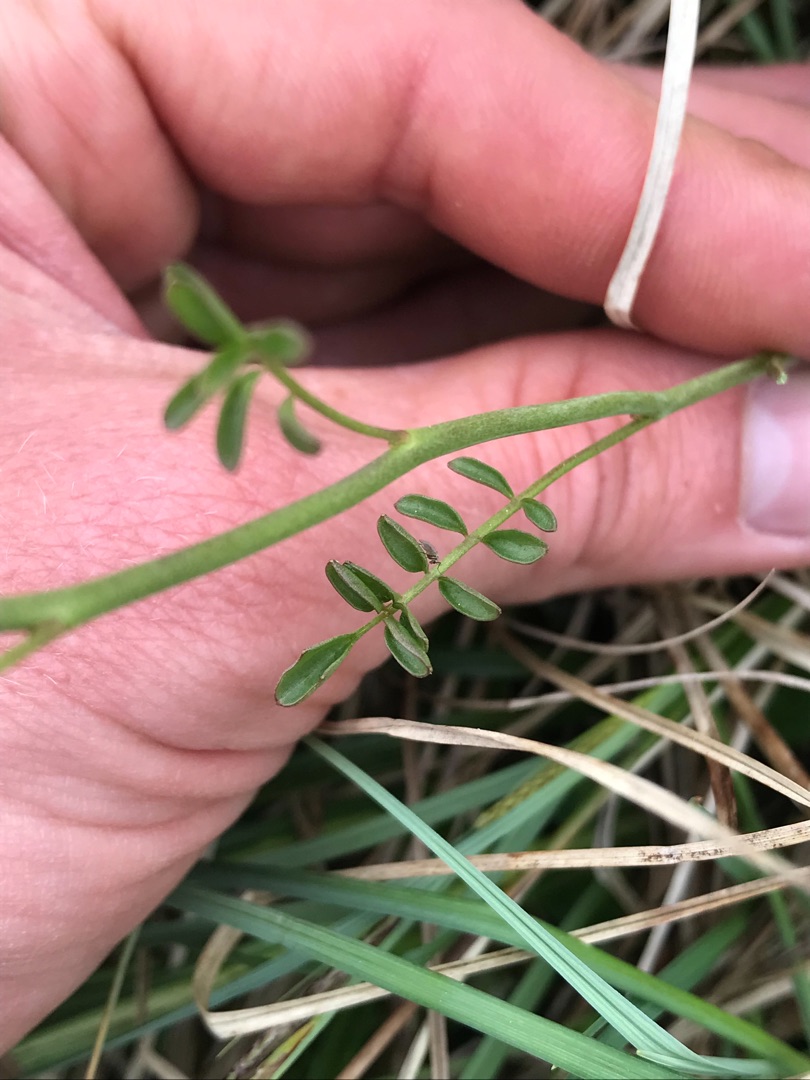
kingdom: Plantae
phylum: Tracheophyta
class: Magnoliopsida
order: Brassicales
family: Brassicaceae
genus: Cardamine
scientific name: Cardamine pratensis
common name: Engkarse
